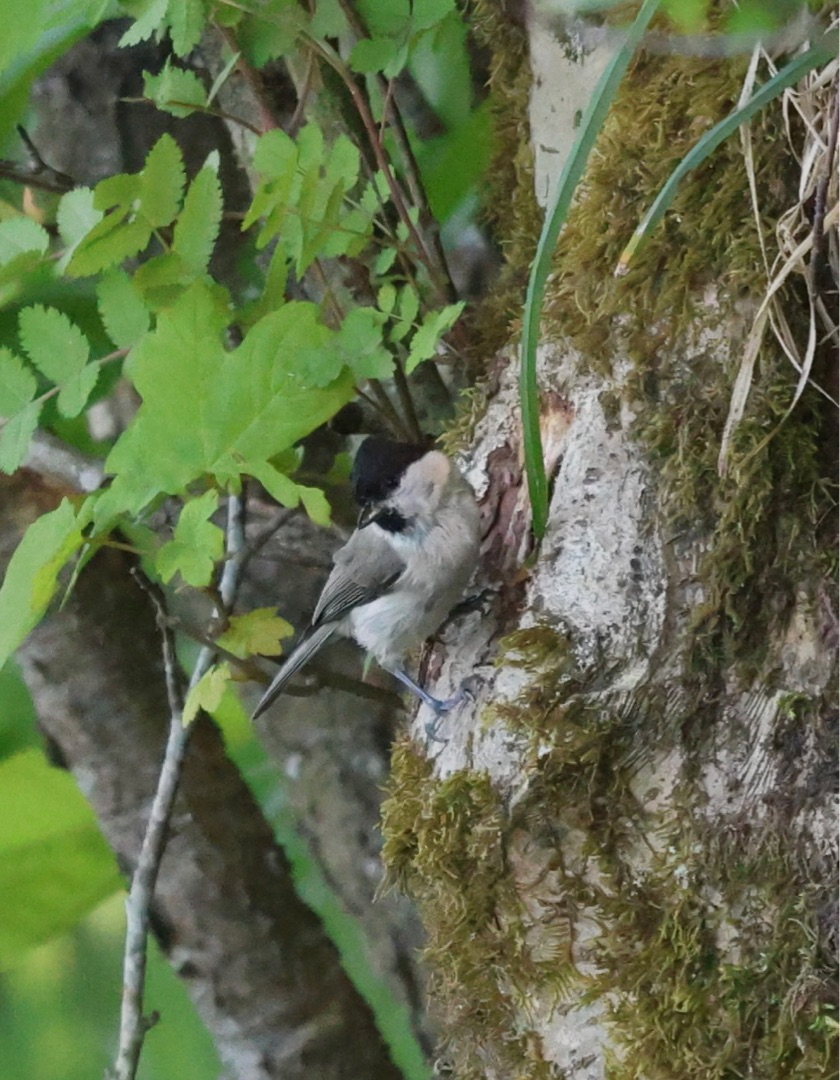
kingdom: Animalia
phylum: Chordata
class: Aves
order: Passeriformes
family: Paridae
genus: Poecile
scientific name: Poecile palustris
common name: Sumpmejse
